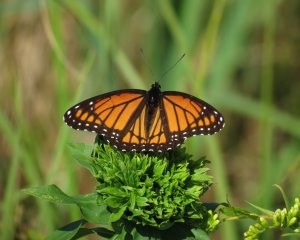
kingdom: Animalia
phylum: Arthropoda
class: Insecta
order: Lepidoptera
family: Nymphalidae
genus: Limenitis
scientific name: Limenitis archippus
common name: Viceroy
